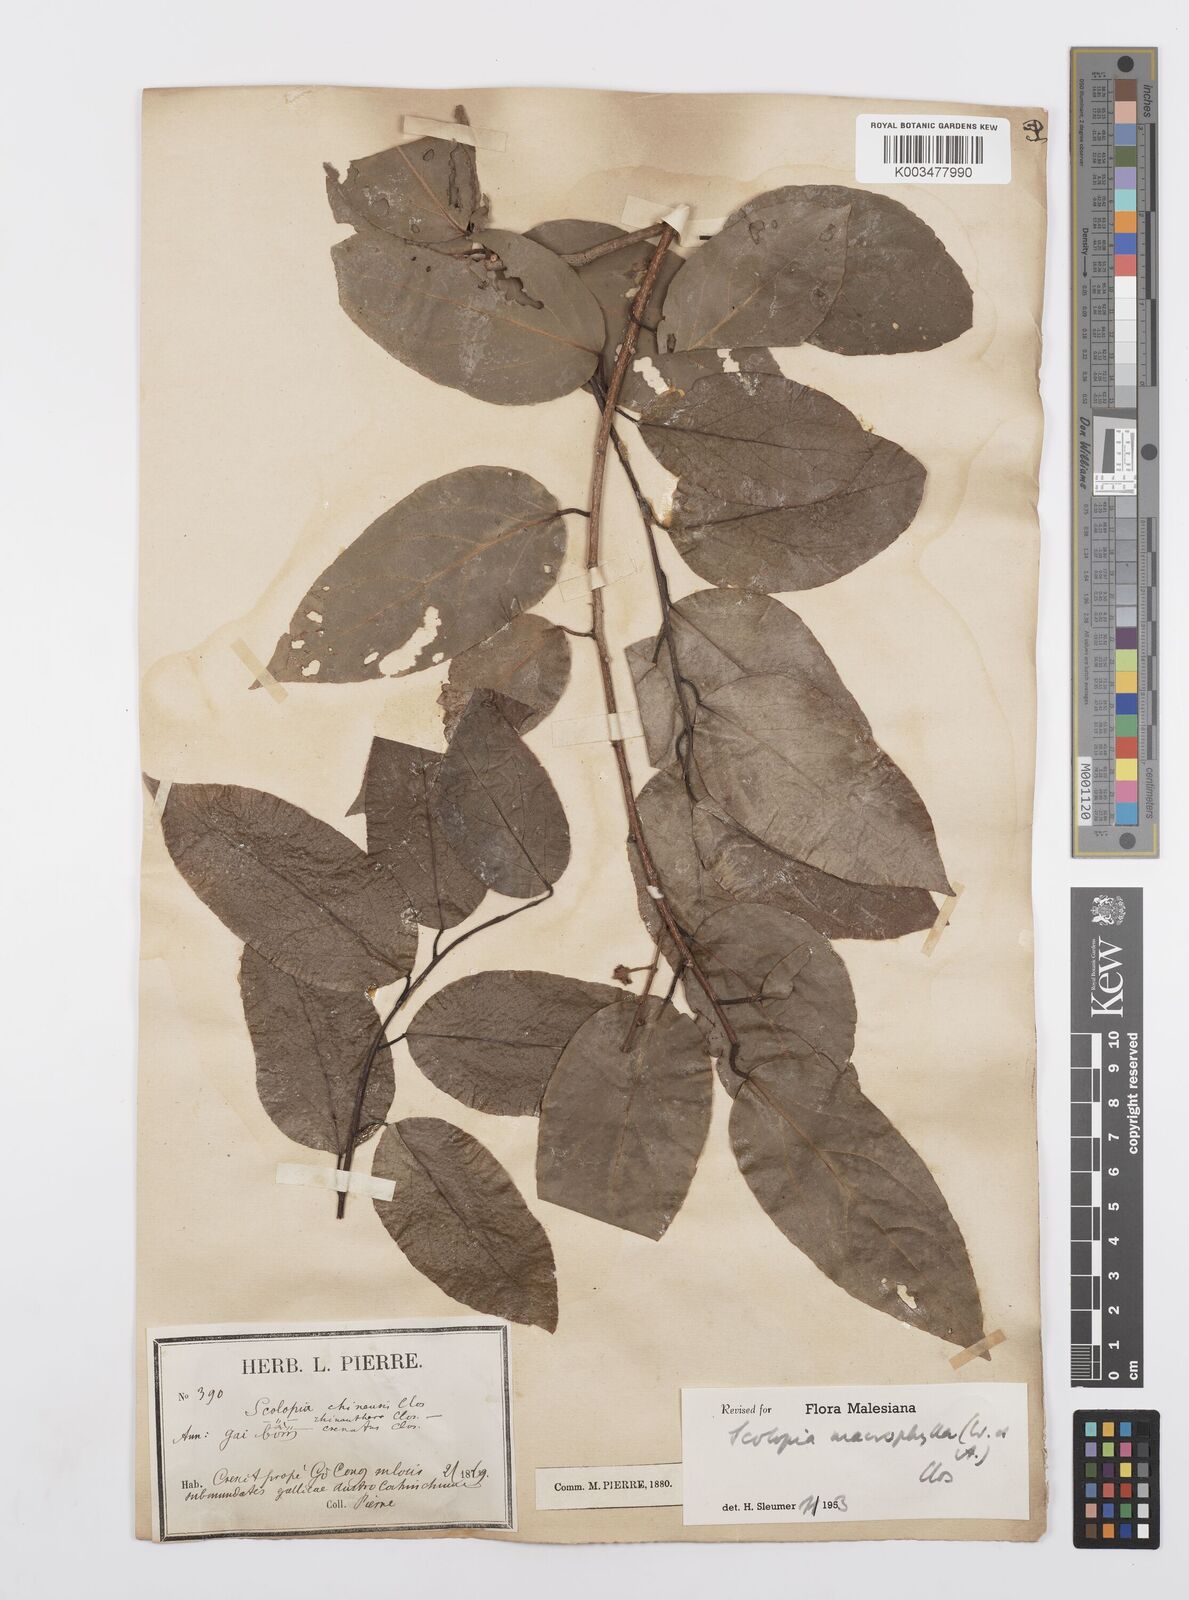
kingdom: Plantae
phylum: Tracheophyta
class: Magnoliopsida
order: Malpighiales
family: Salicaceae
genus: Scolopia
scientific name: Scolopia macrophylla
